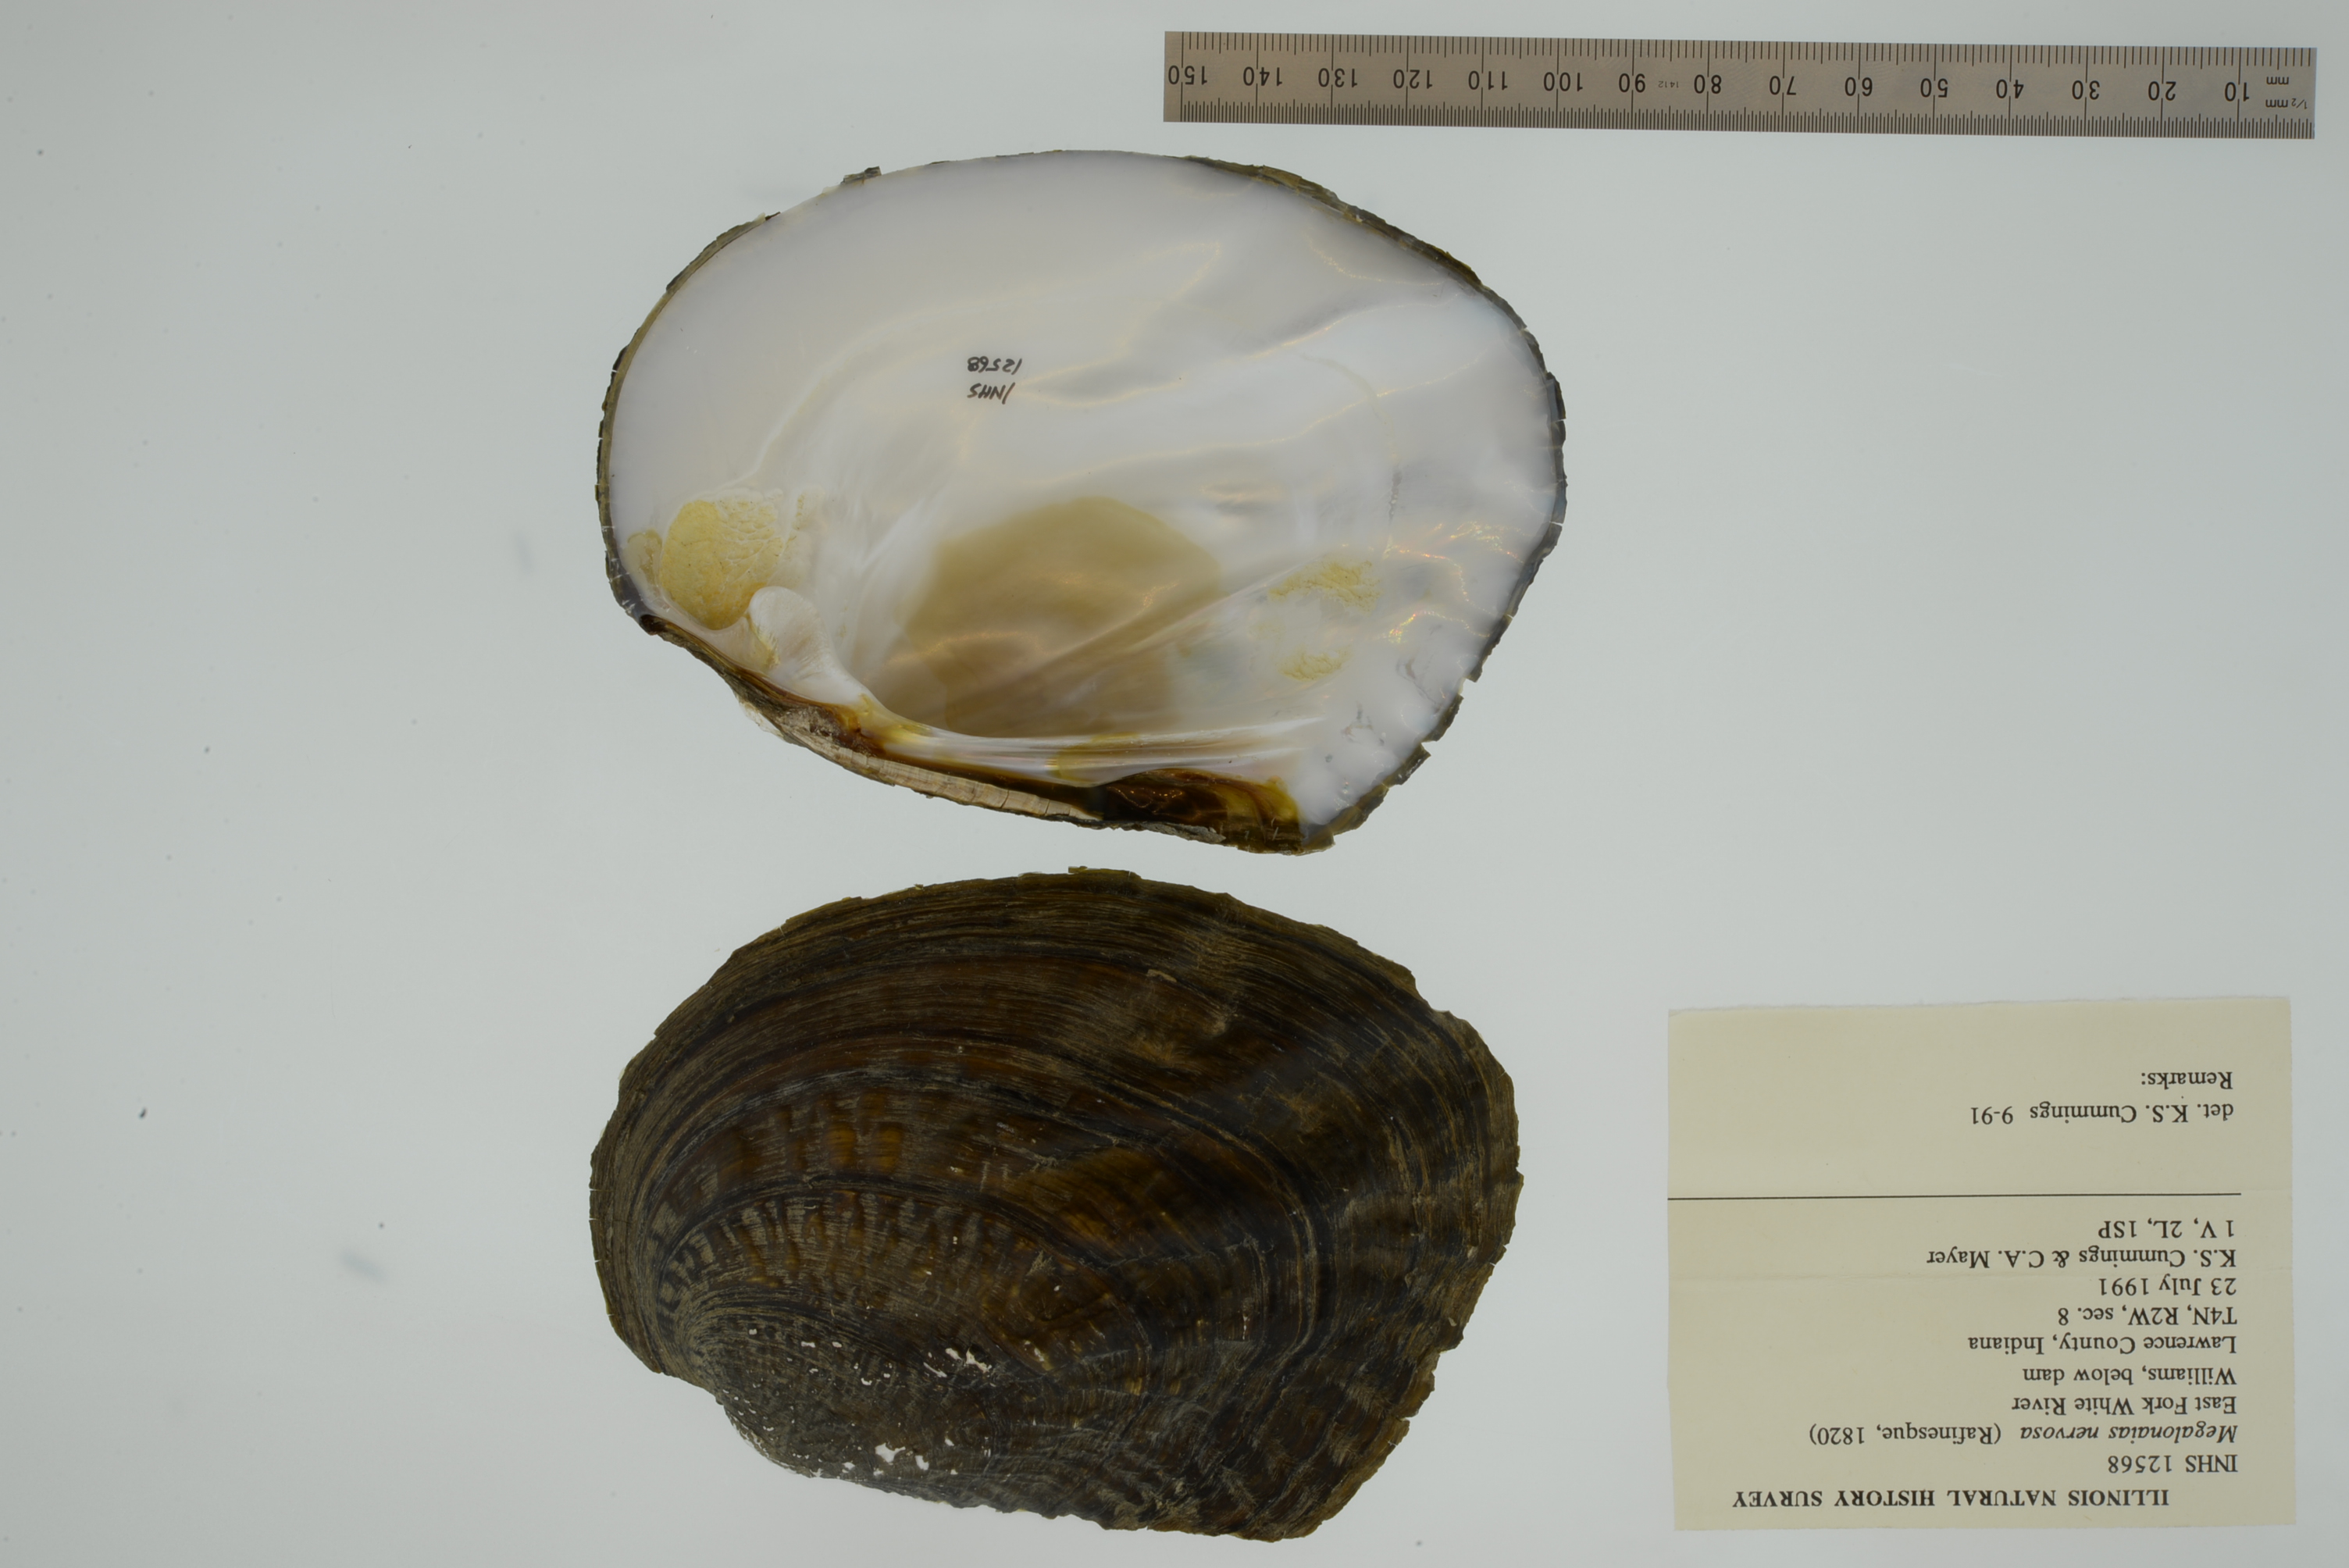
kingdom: Animalia
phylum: Mollusca
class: Bivalvia
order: Unionida
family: Unionidae
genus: Megalonaias
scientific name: Megalonaias nervosa
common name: Washboard
